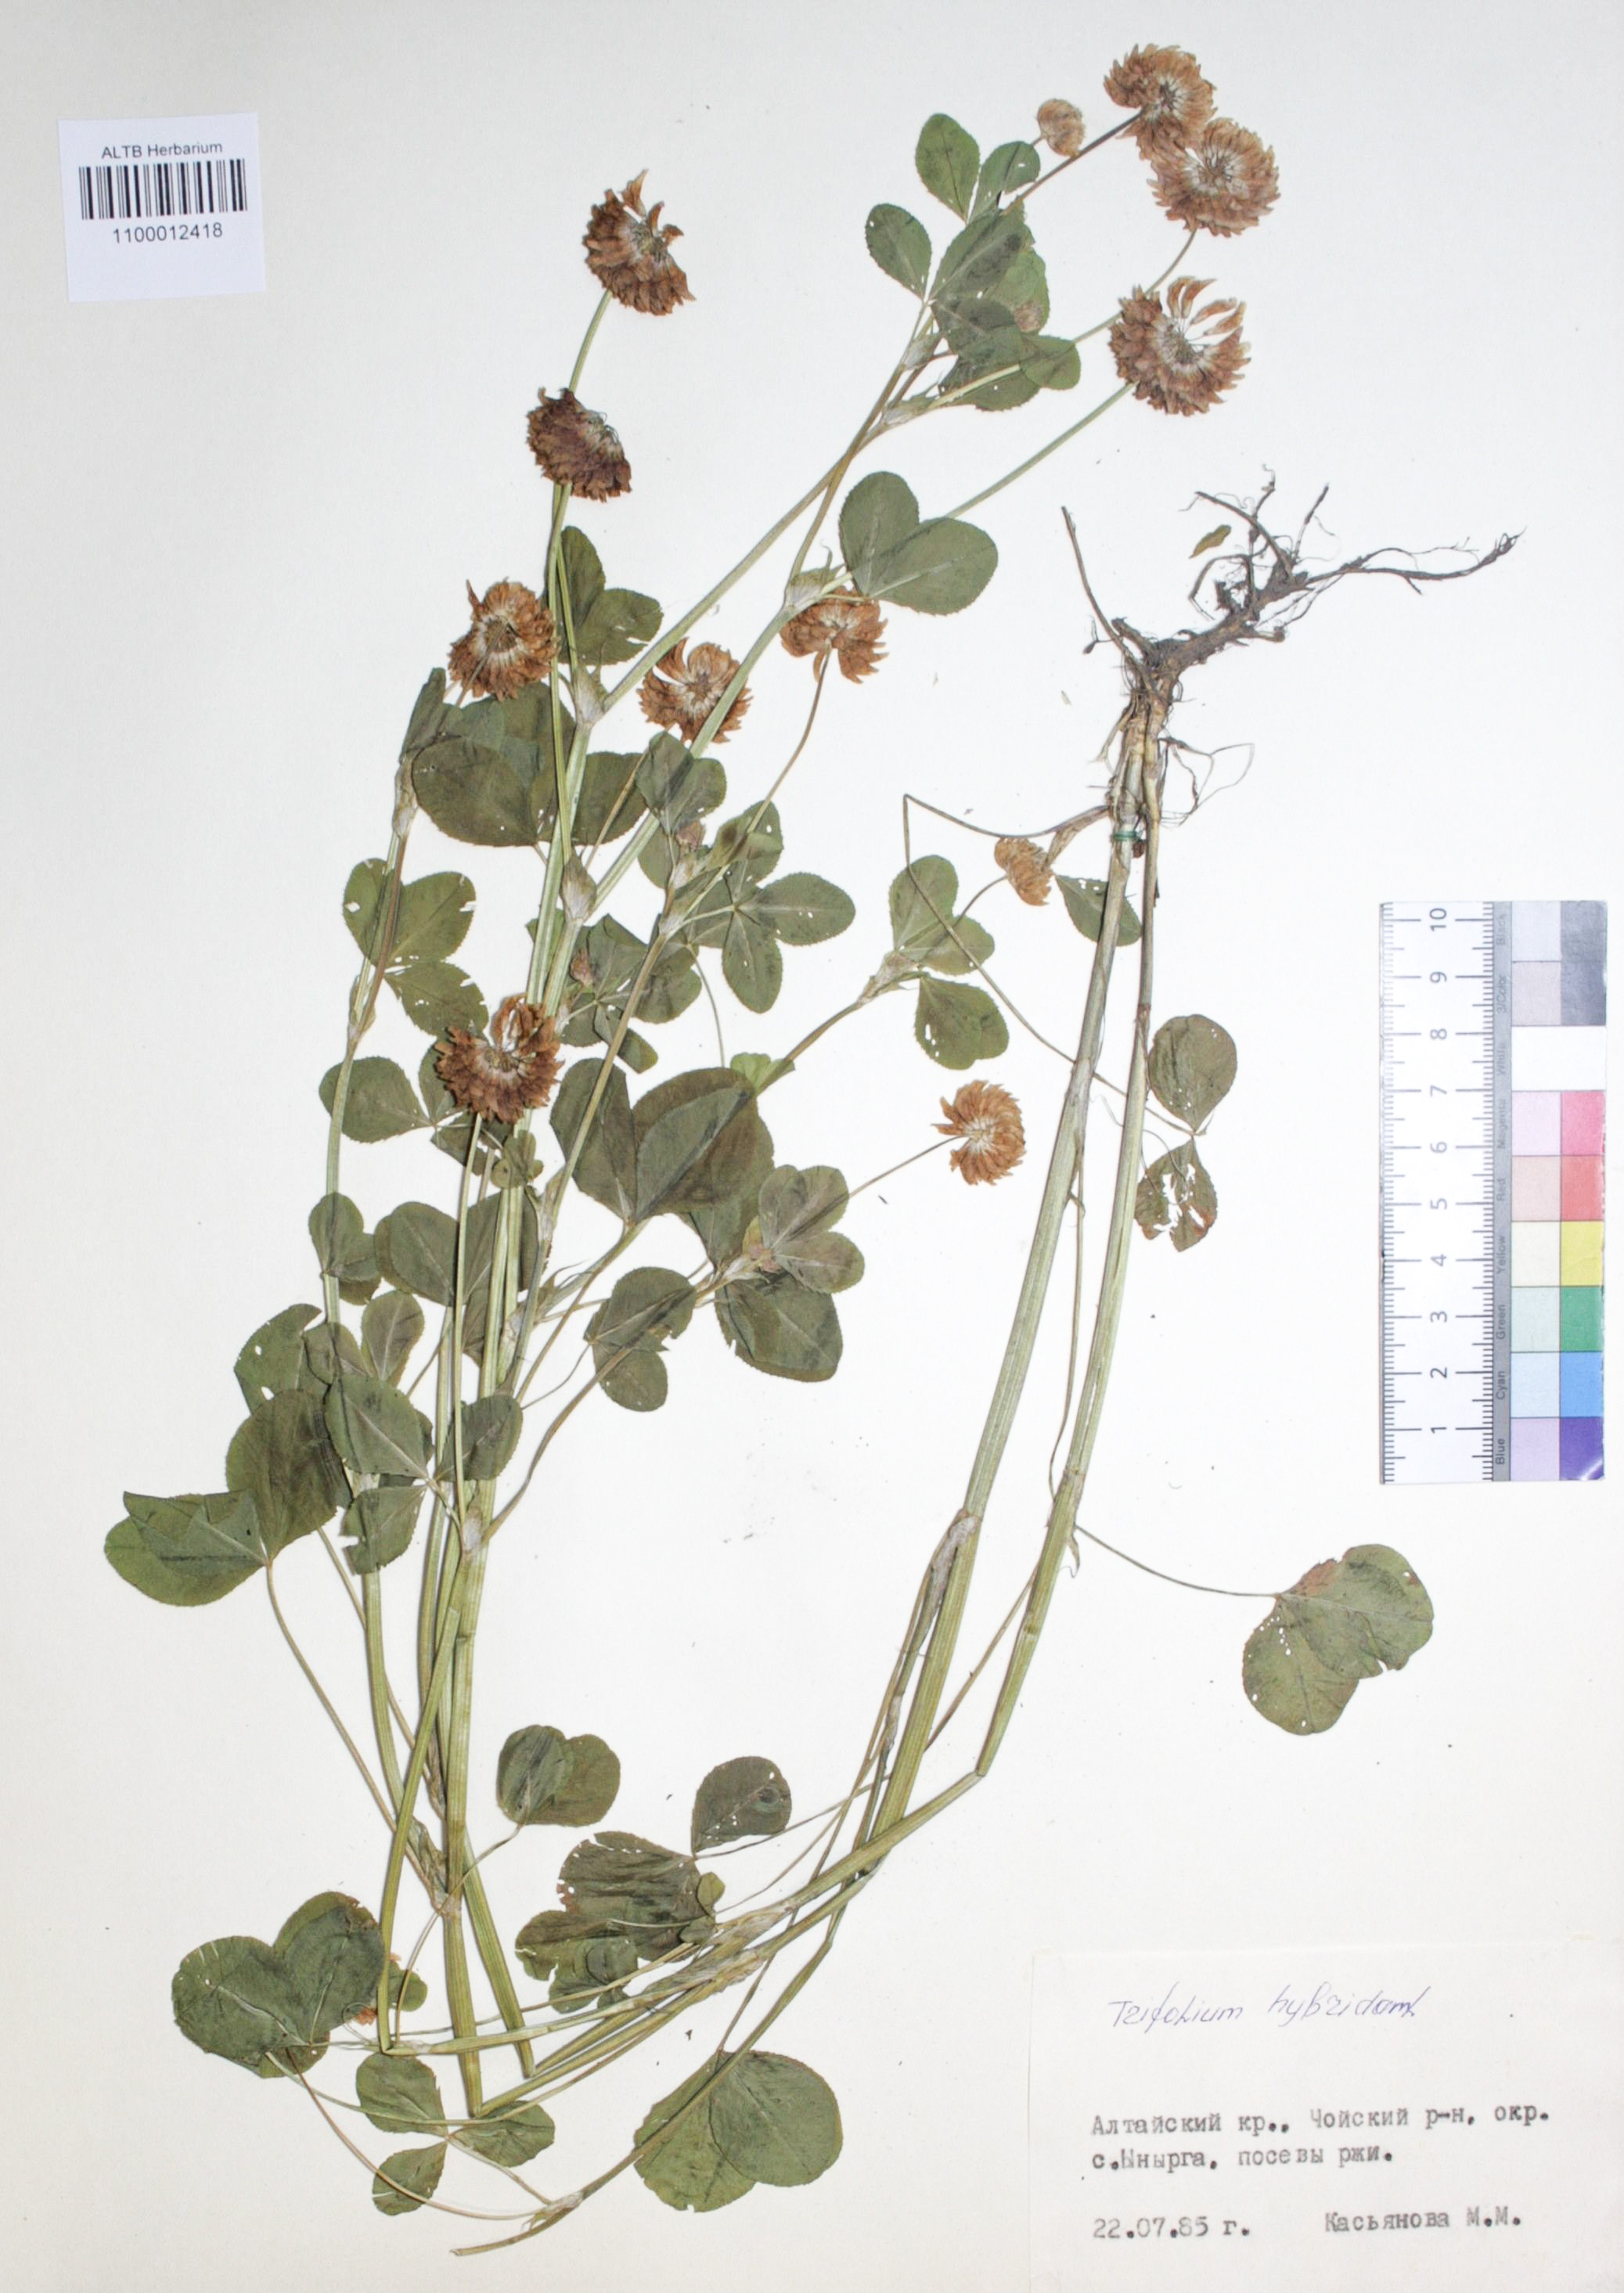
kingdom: Plantae
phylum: Tracheophyta
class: Magnoliopsida
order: Fabales
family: Fabaceae
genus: Trifolium
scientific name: Trifolium hybridum
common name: Alsike clover
